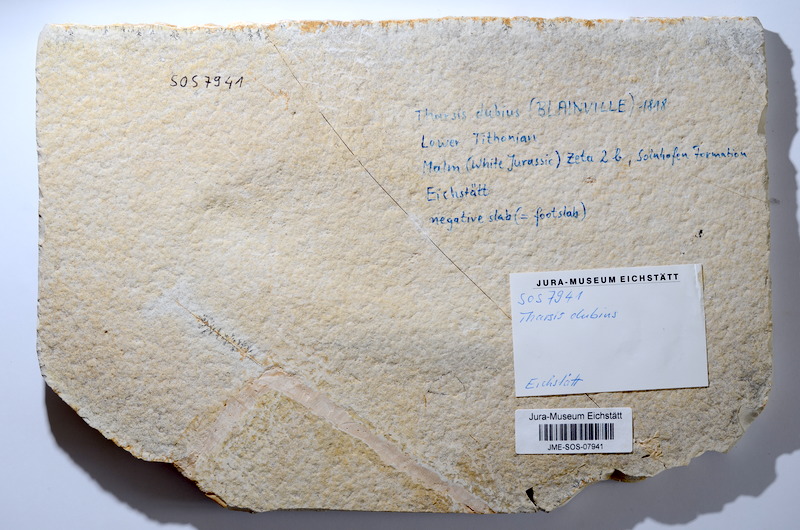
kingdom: Animalia
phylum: Chordata
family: Ascalaboidae
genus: Tharsis
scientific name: Tharsis dubius
